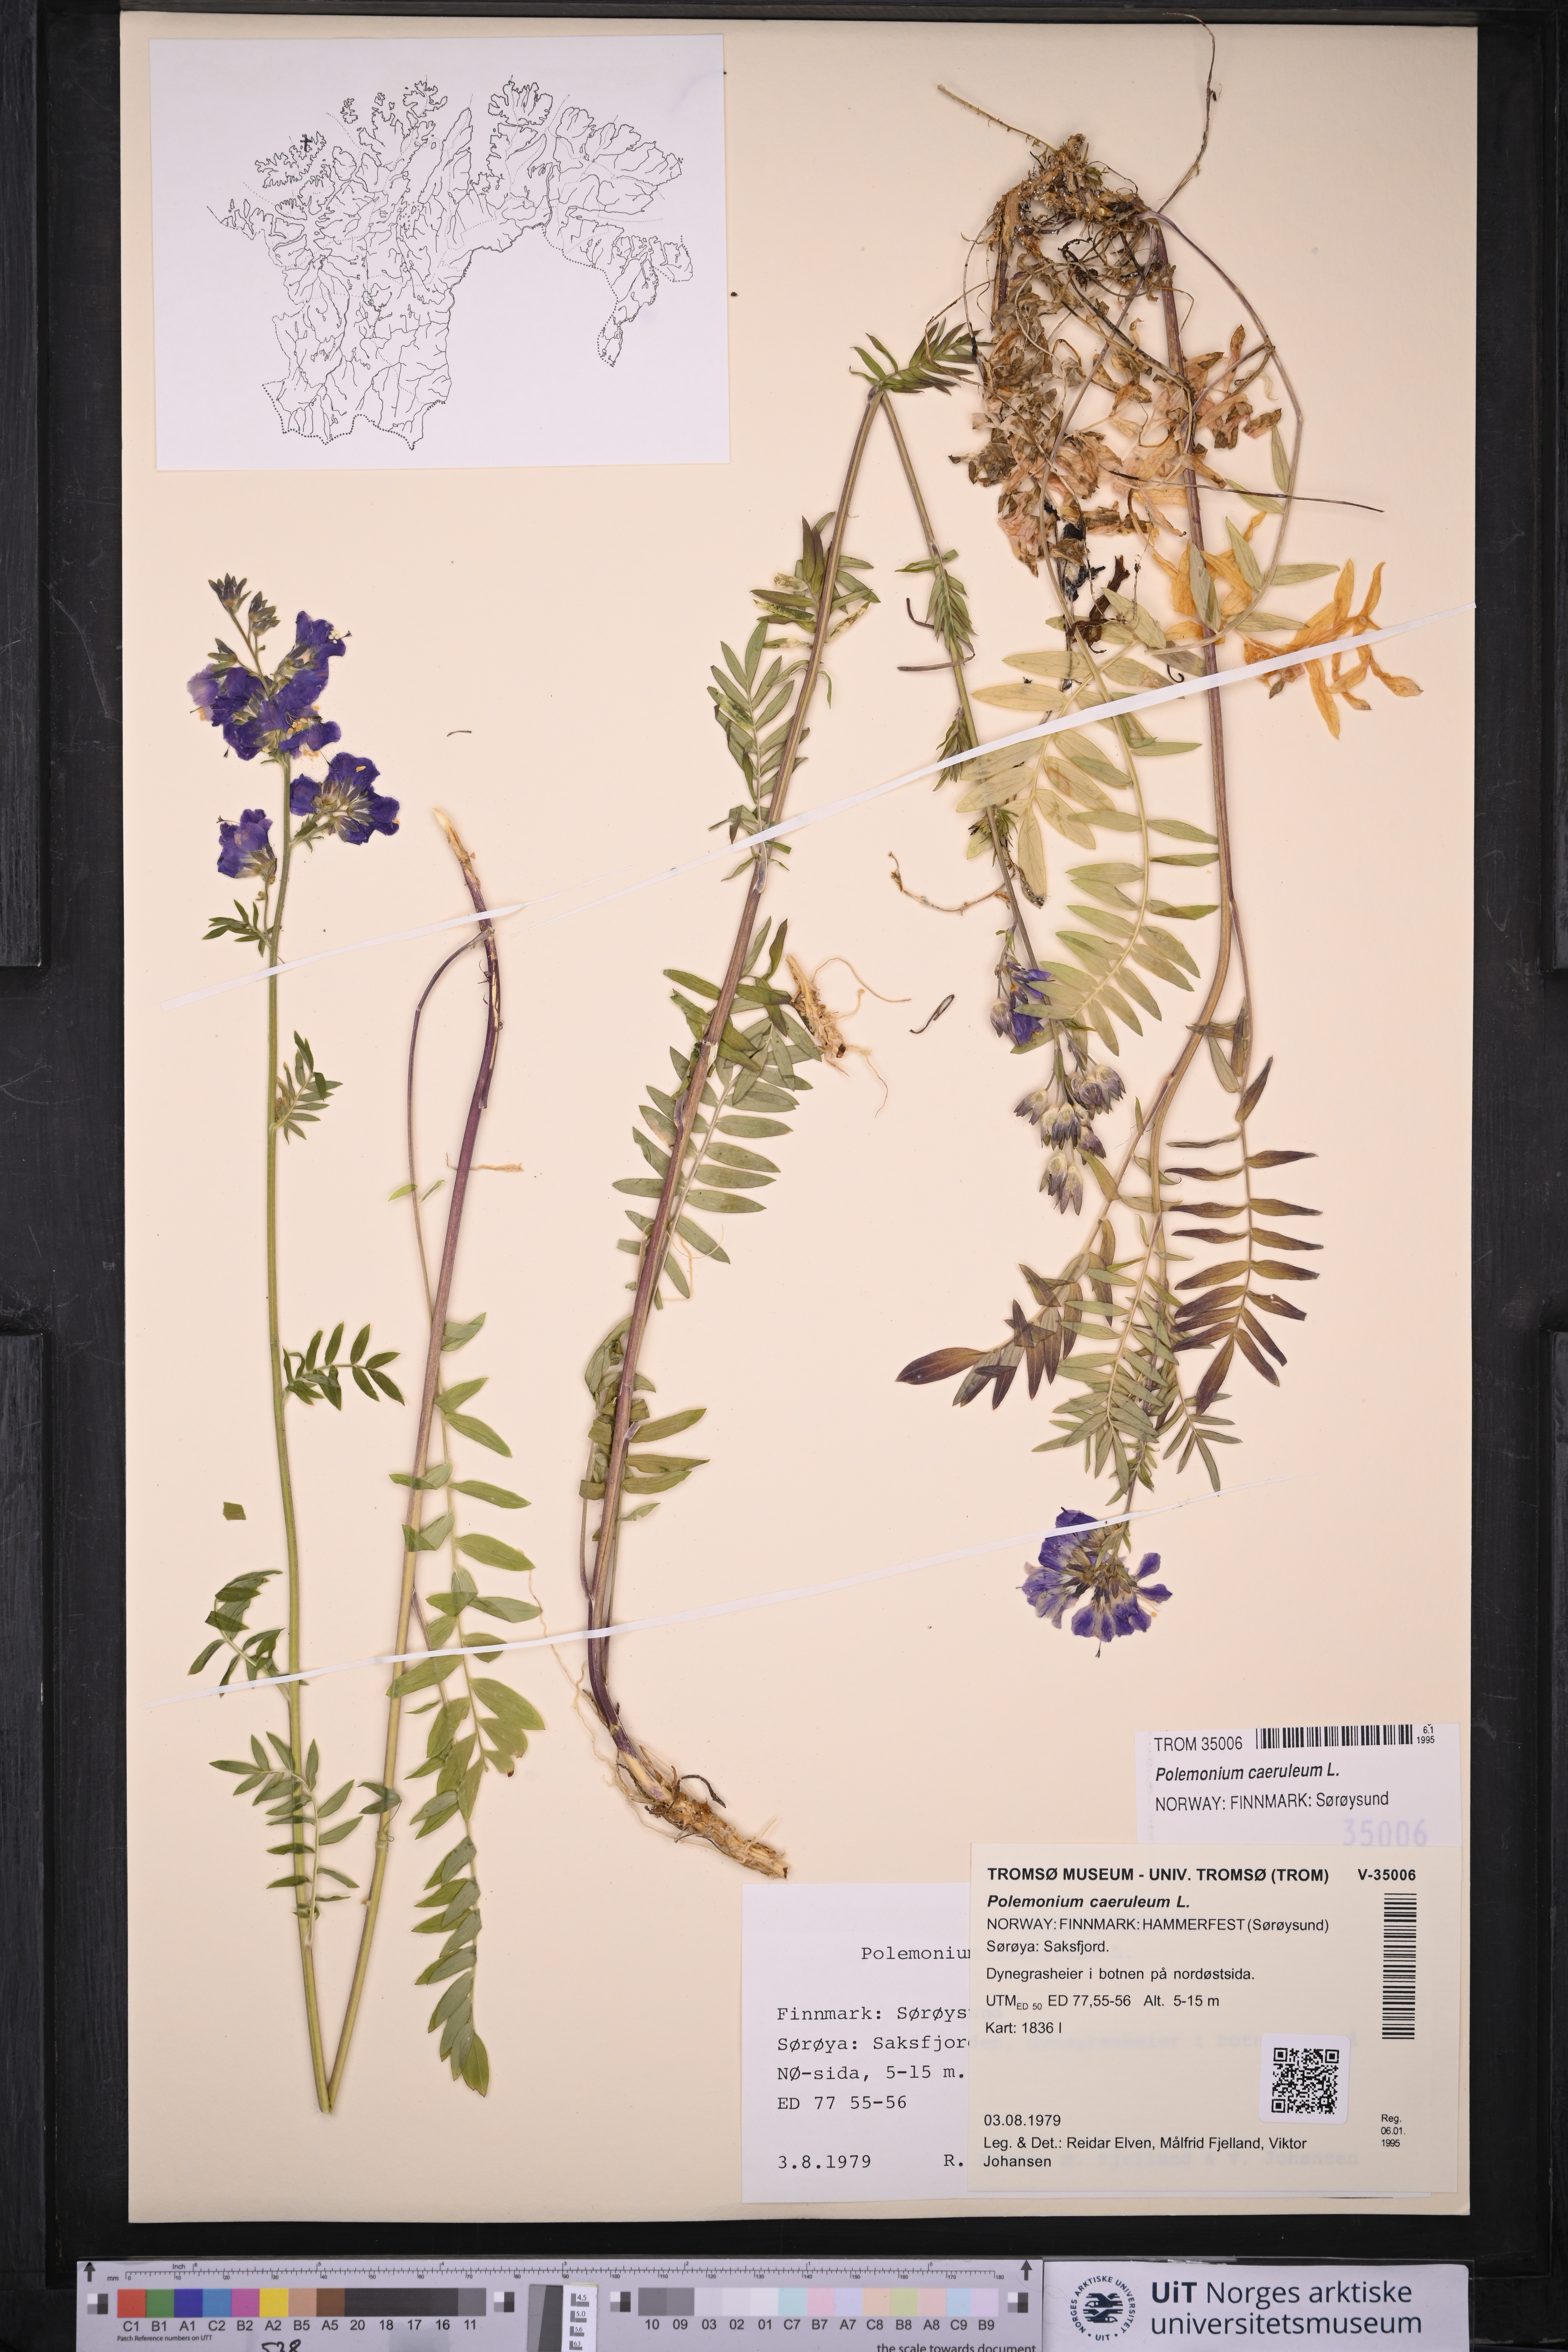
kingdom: Plantae
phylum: Tracheophyta
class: Magnoliopsida
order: Ericales
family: Polemoniaceae
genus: Polemonium
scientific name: Polemonium caeruleum
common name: Jacob's-ladder
